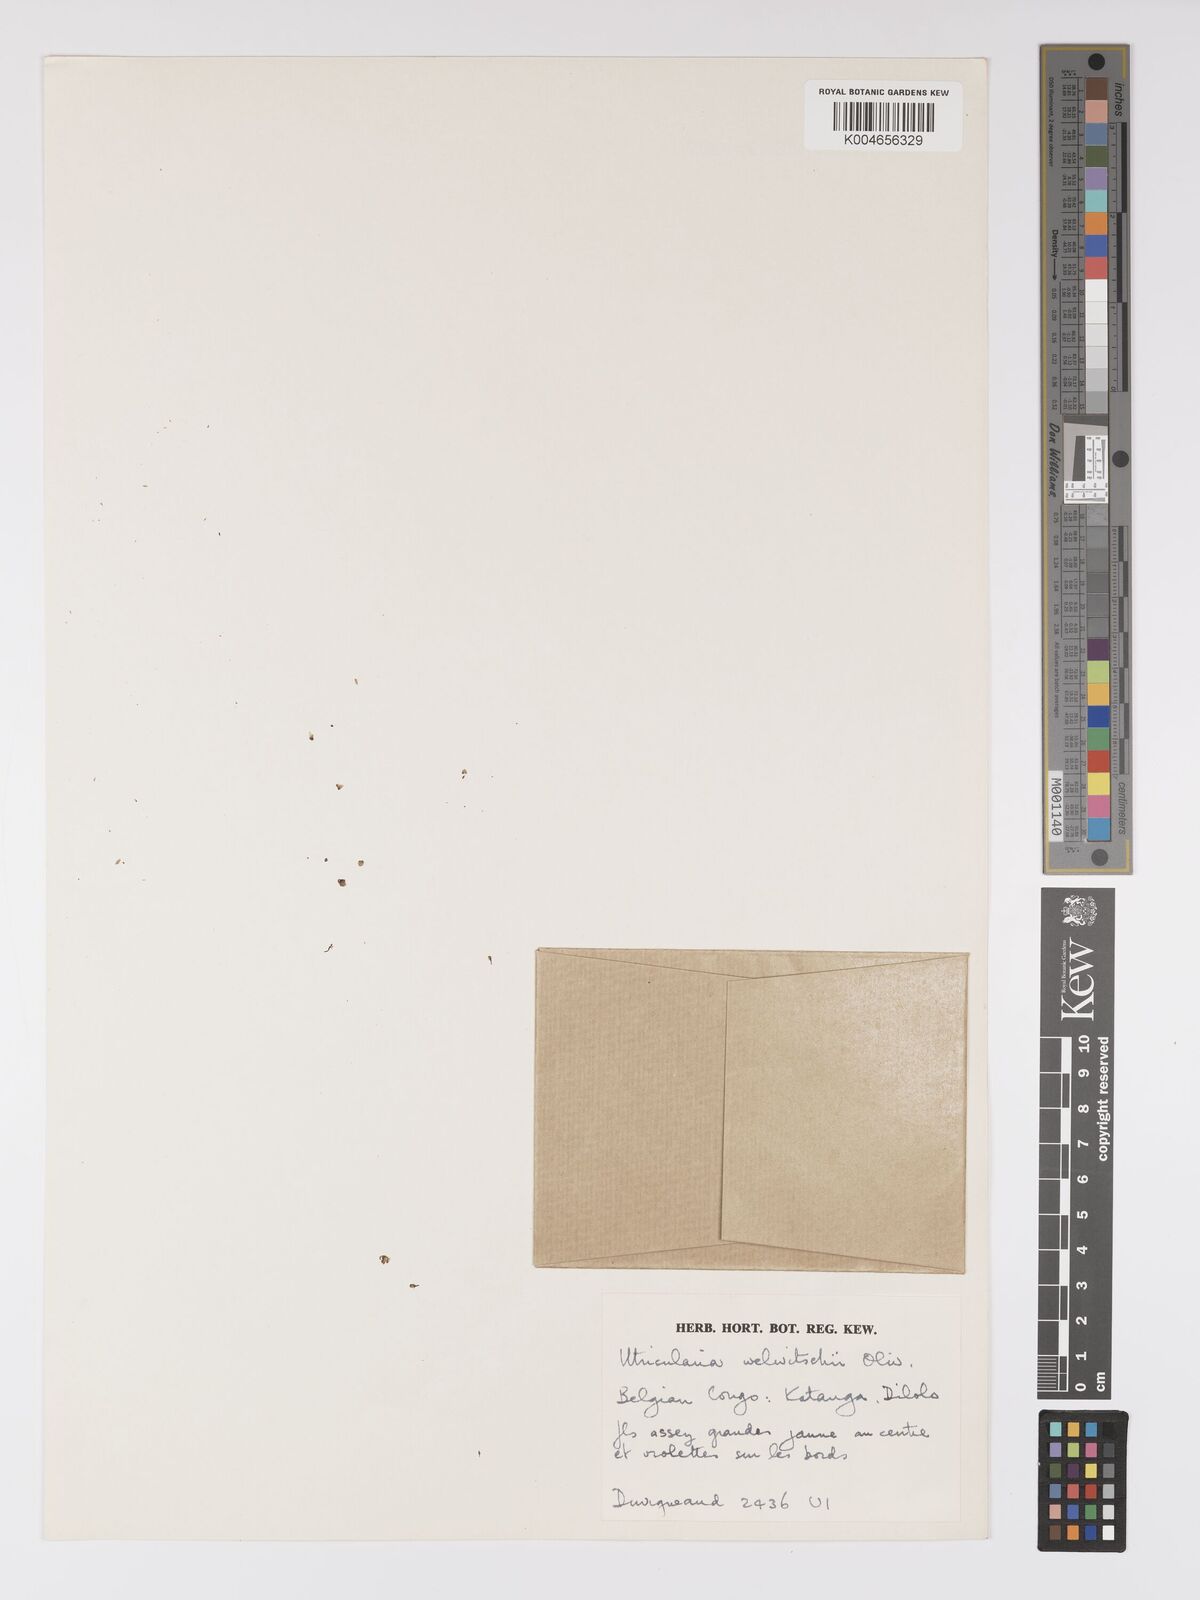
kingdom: Plantae
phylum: Tracheophyta
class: Magnoliopsida
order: Lamiales
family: Lentibulariaceae
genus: Utricularia
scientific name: Utricularia welwitschii
